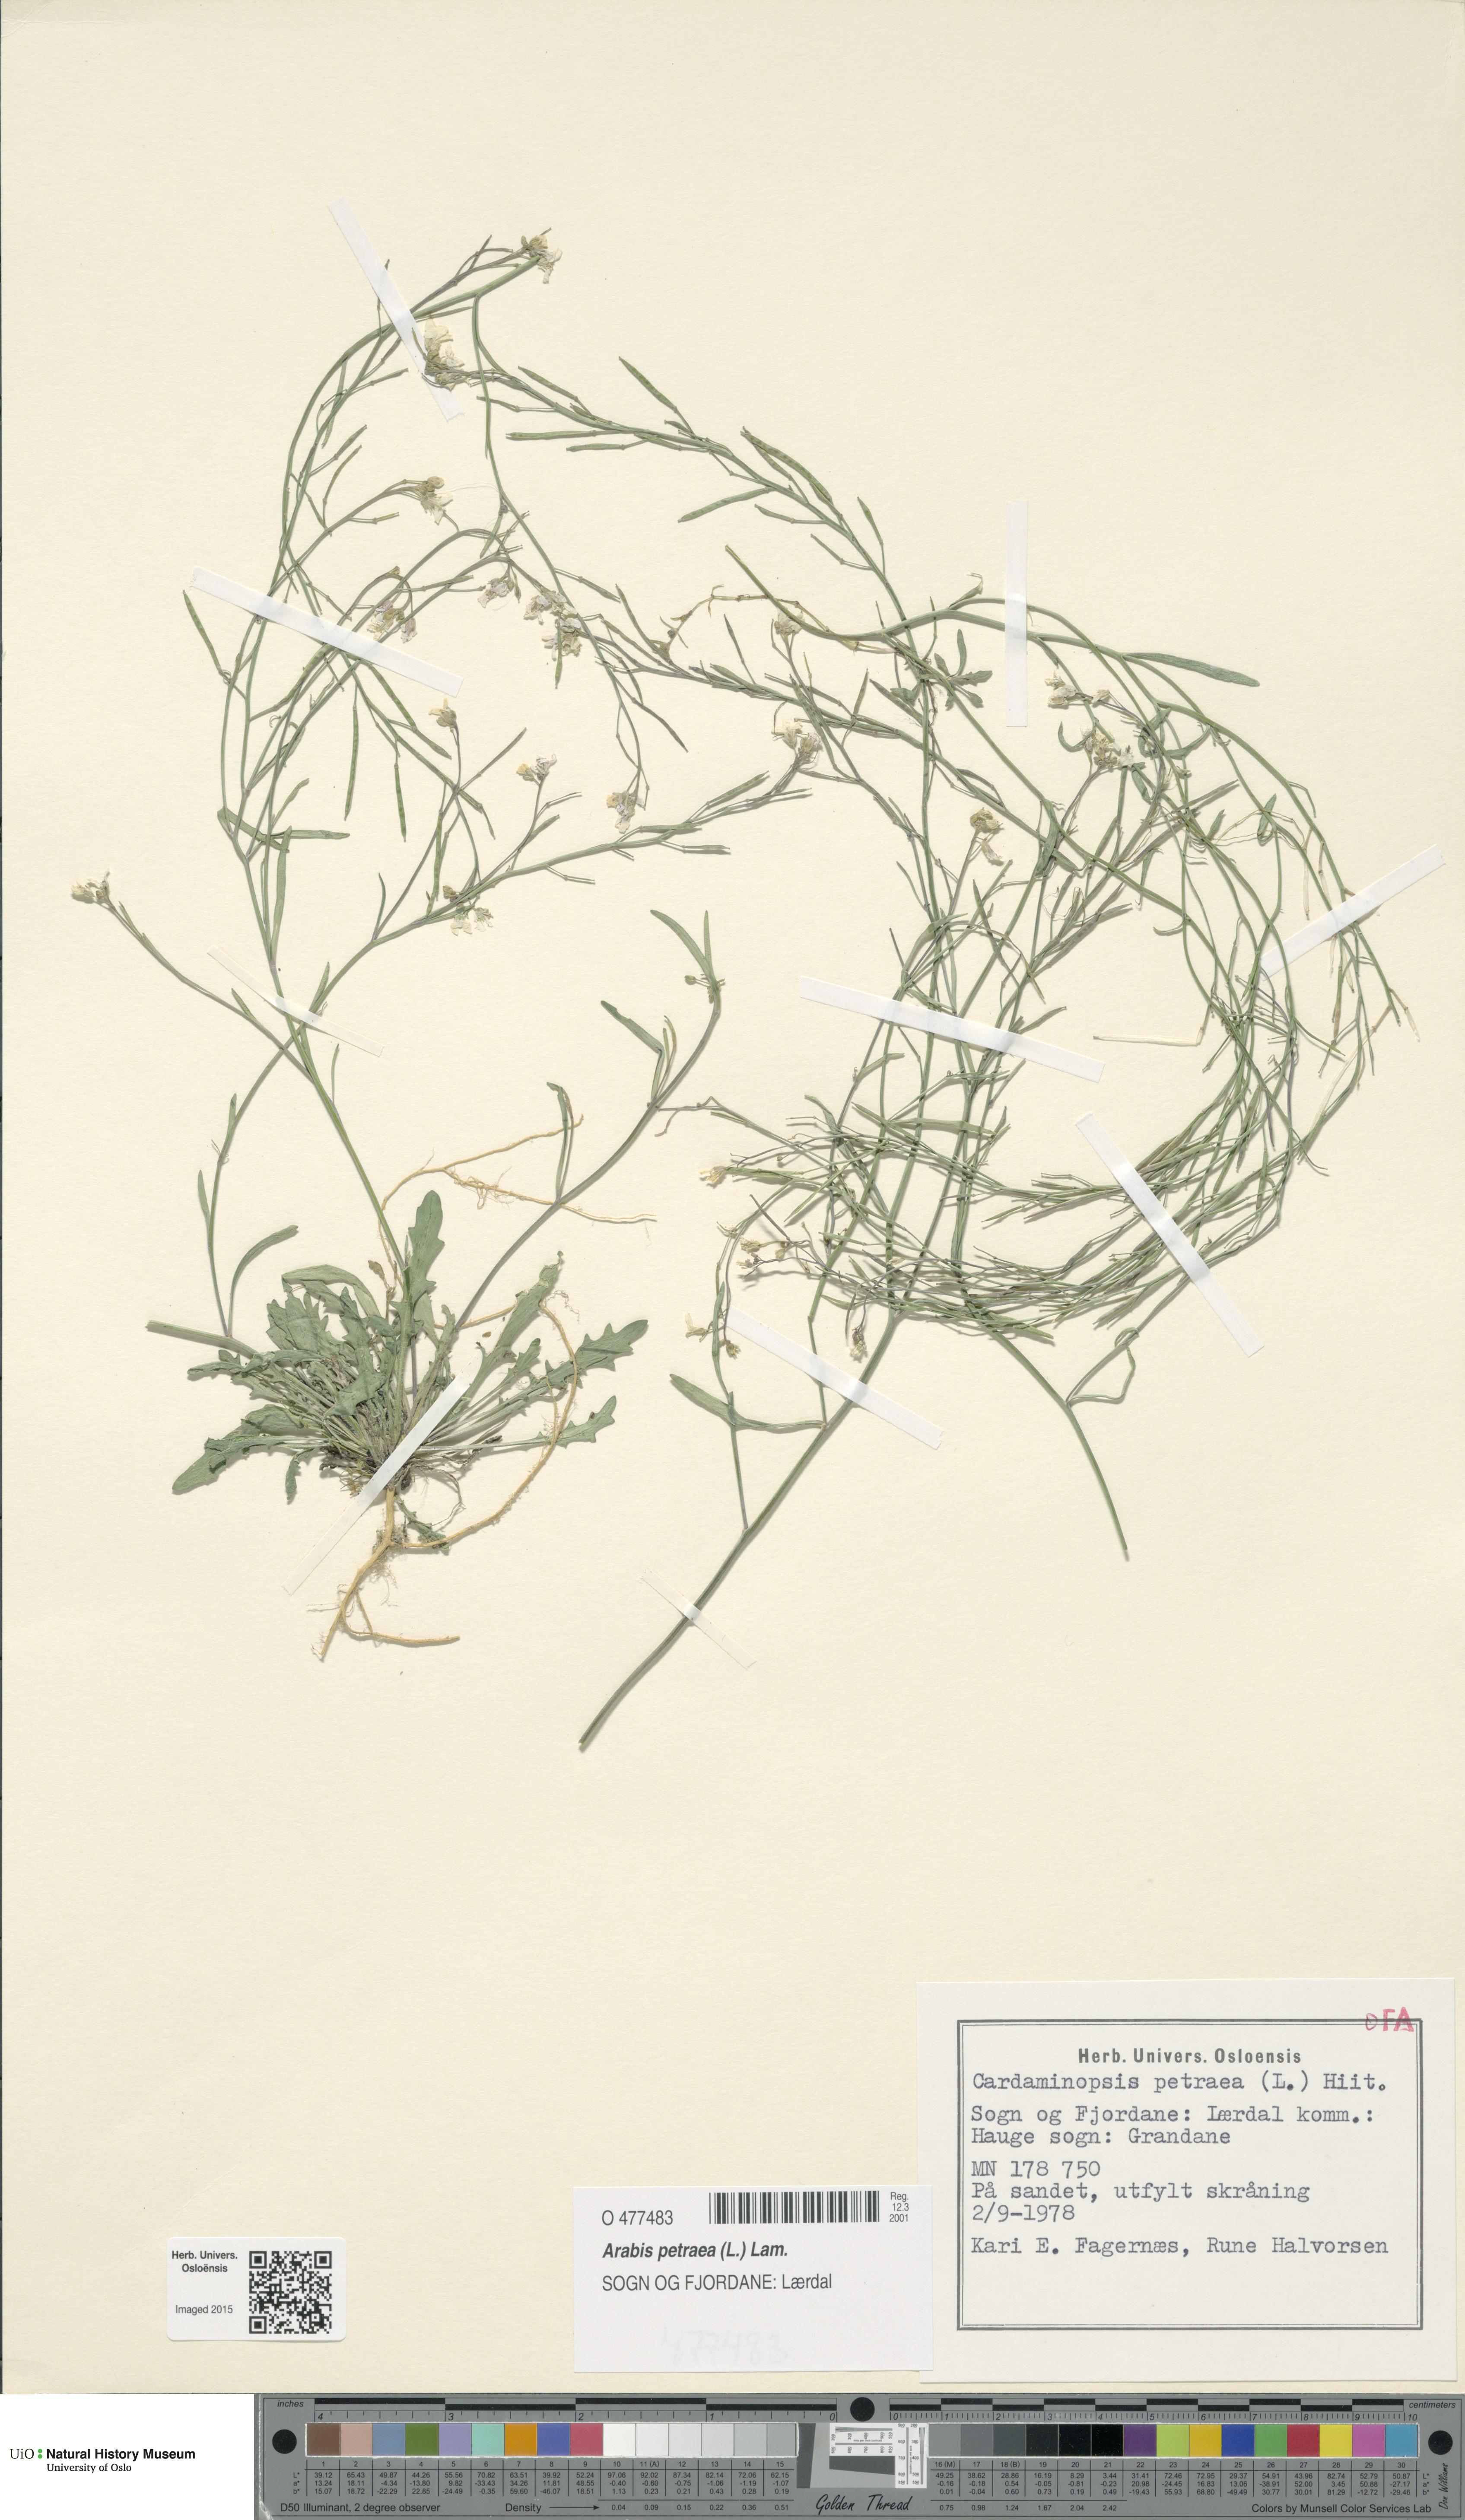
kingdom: Plantae
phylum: Tracheophyta
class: Magnoliopsida
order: Brassicales
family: Brassicaceae
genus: Arabidopsis
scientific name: Arabidopsis petraea
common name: Northern rock-cress
